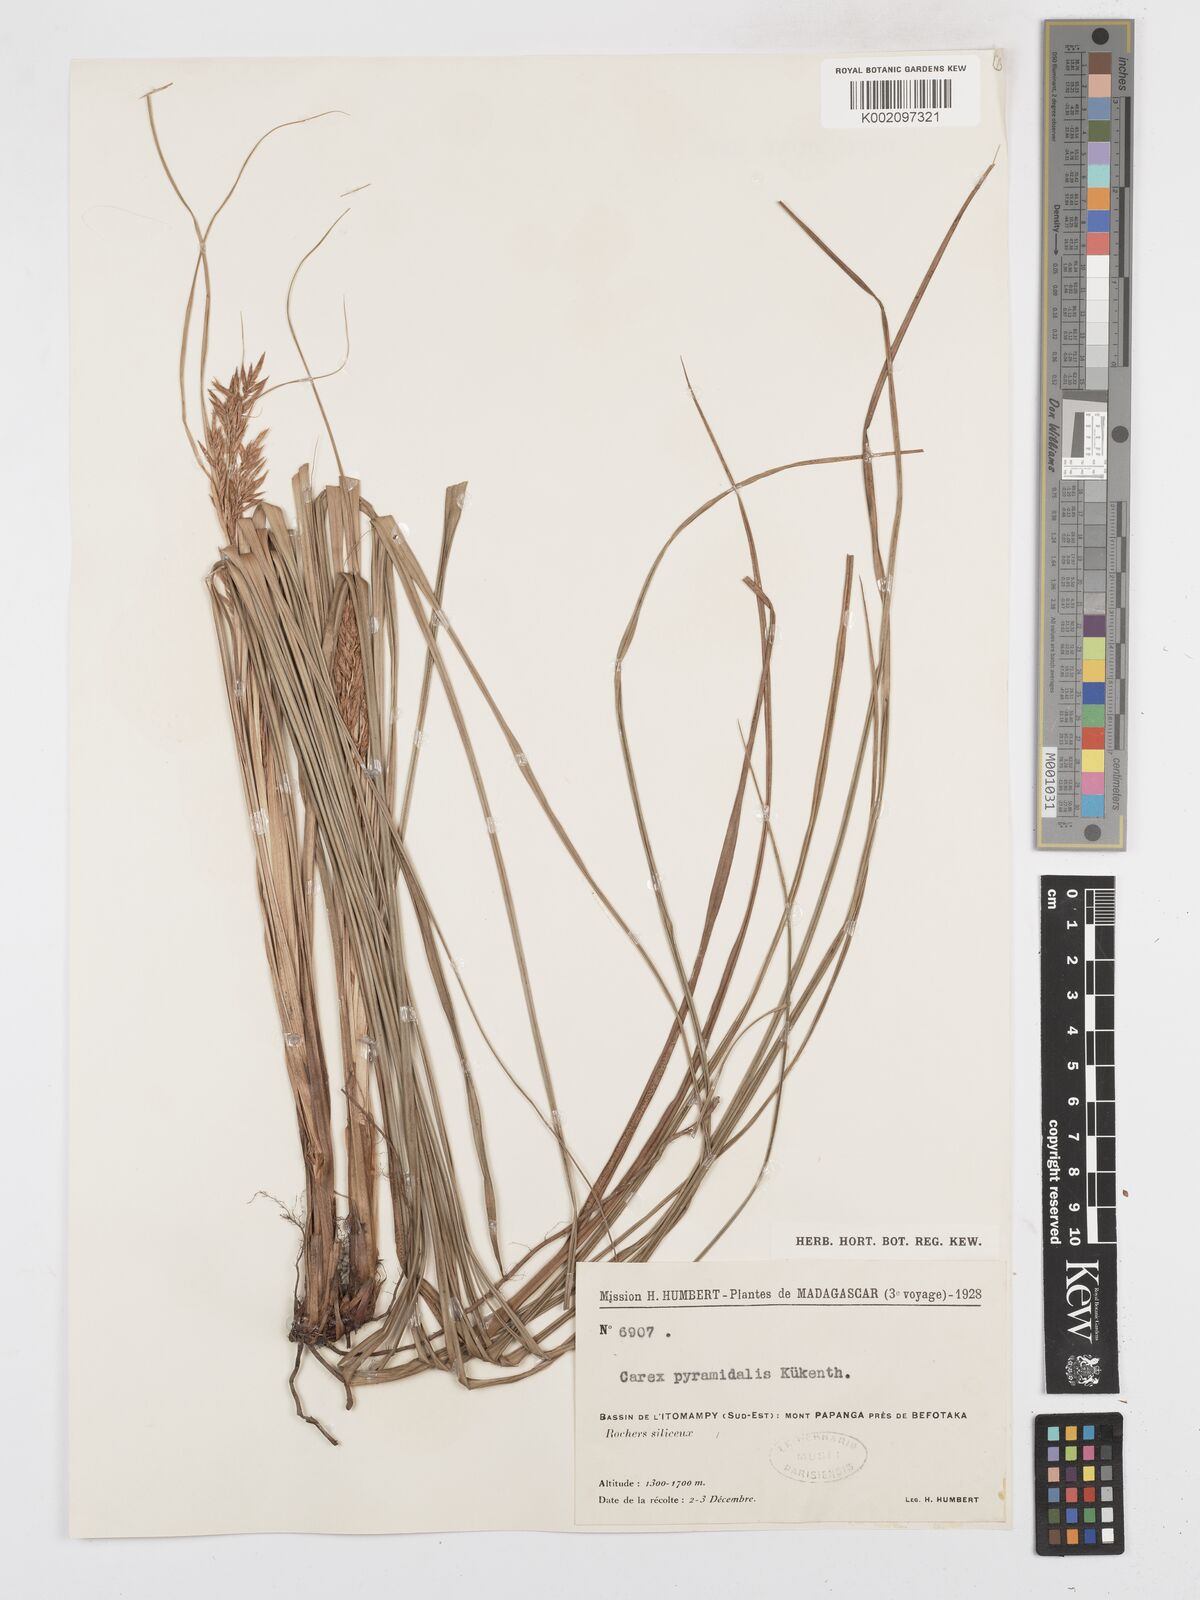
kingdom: Plantae
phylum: Tracheophyta
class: Liliopsida
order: Poales
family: Cyperaceae
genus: Carex
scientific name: Carex pyramidalis
